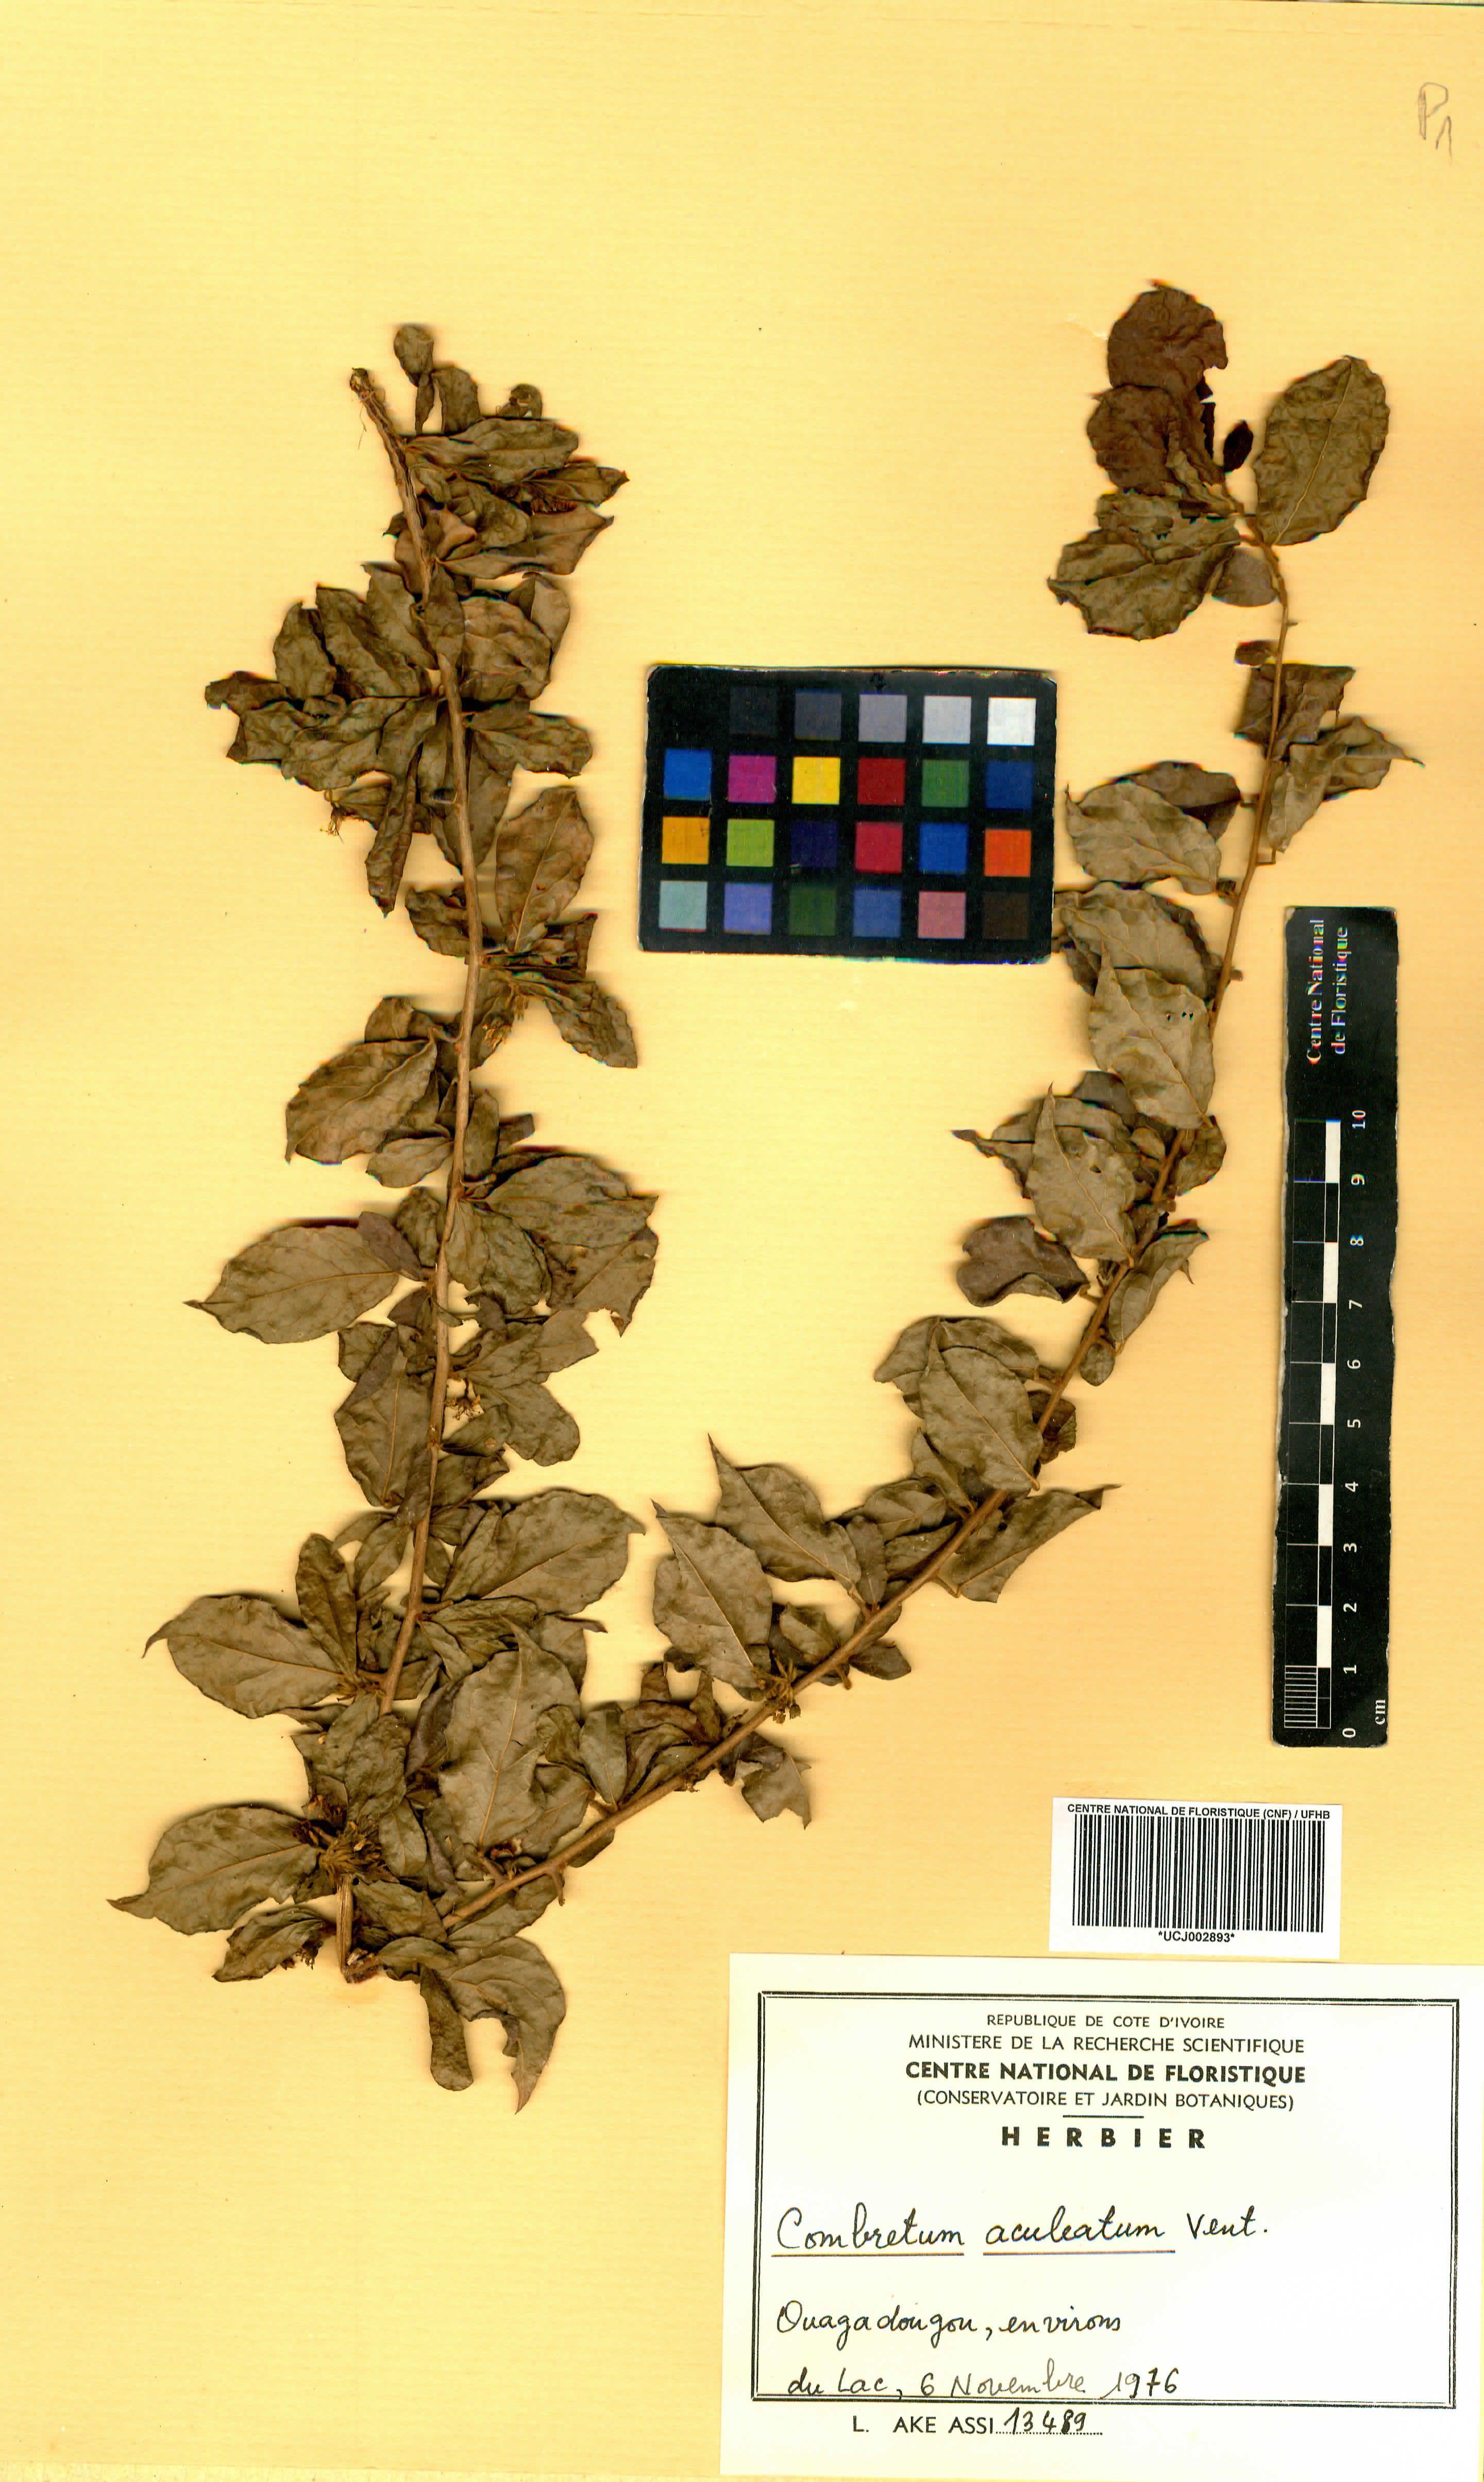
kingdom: Plantae
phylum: Tracheophyta
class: Magnoliopsida
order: Myrtales
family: Combretaceae
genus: Combretum
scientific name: Combretum aculeatum
